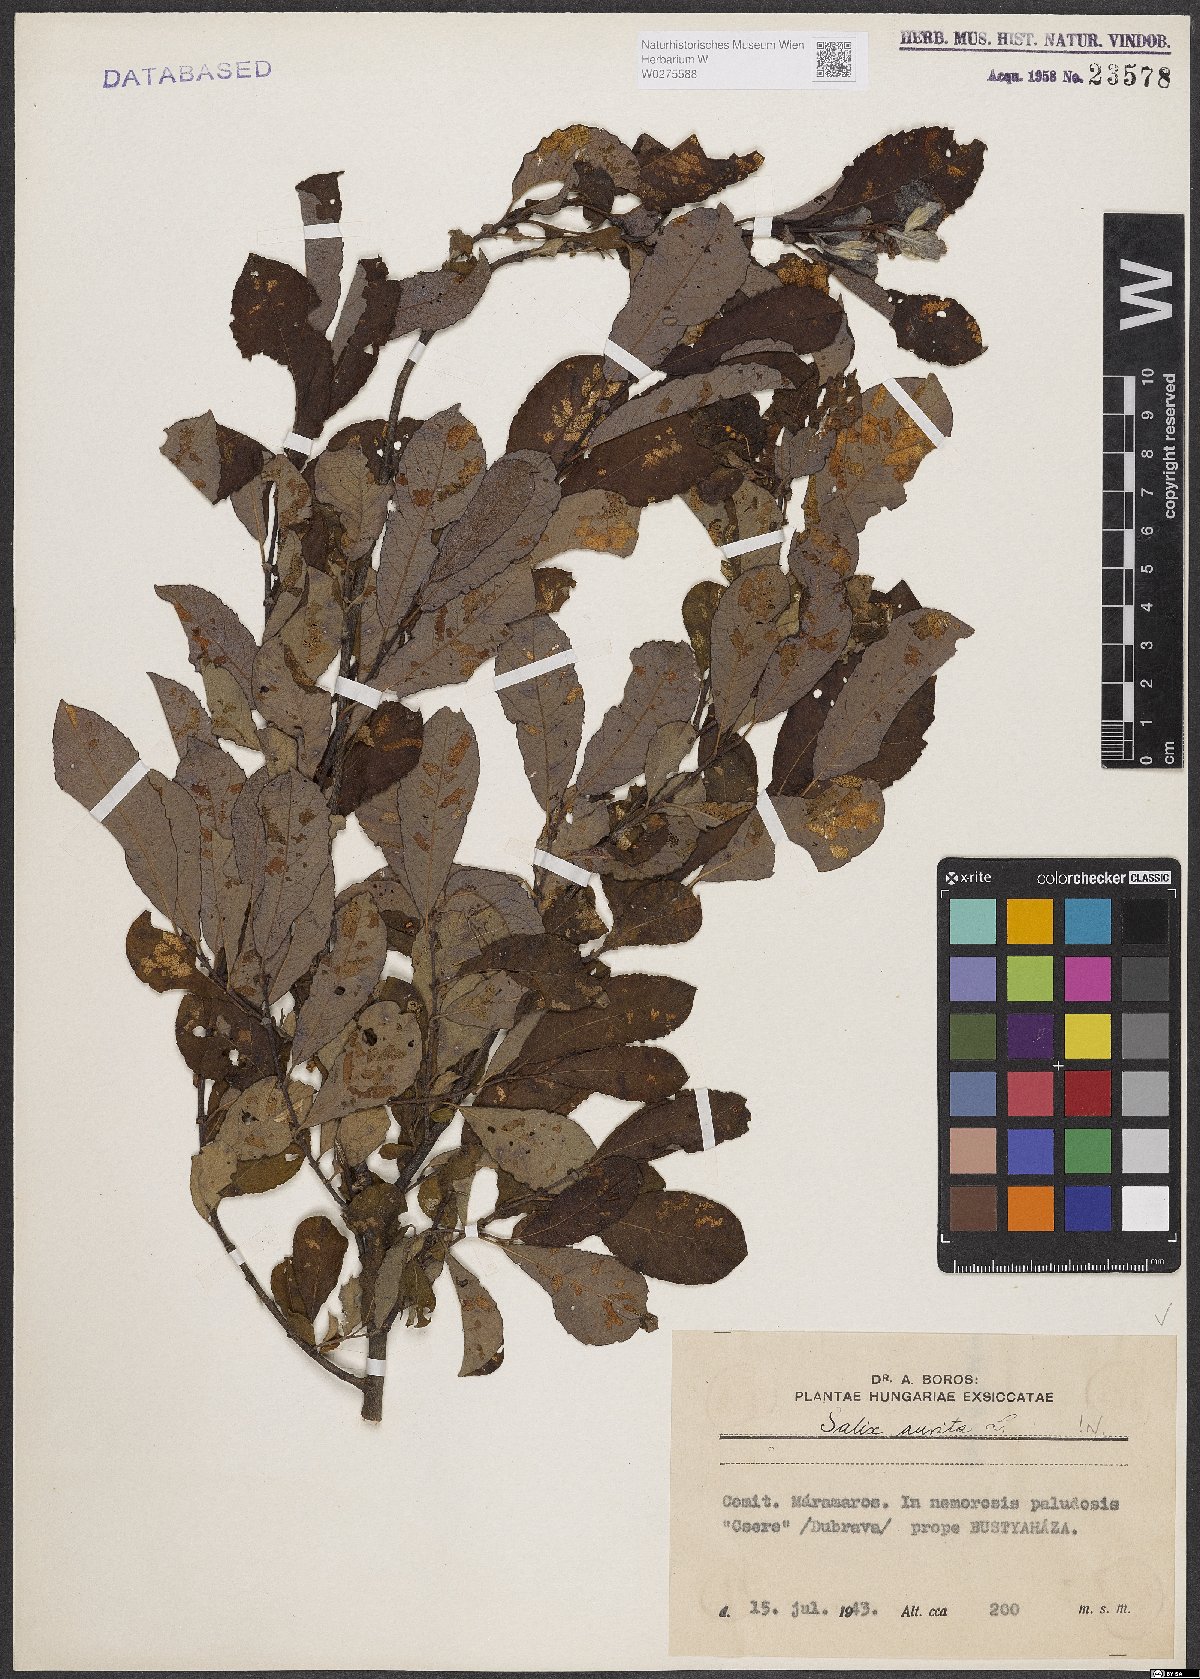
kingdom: Plantae
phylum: Tracheophyta
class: Magnoliopsida
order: Malpighiales
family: Salicaceae
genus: Salix
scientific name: Salix aurita
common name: Eared willow
